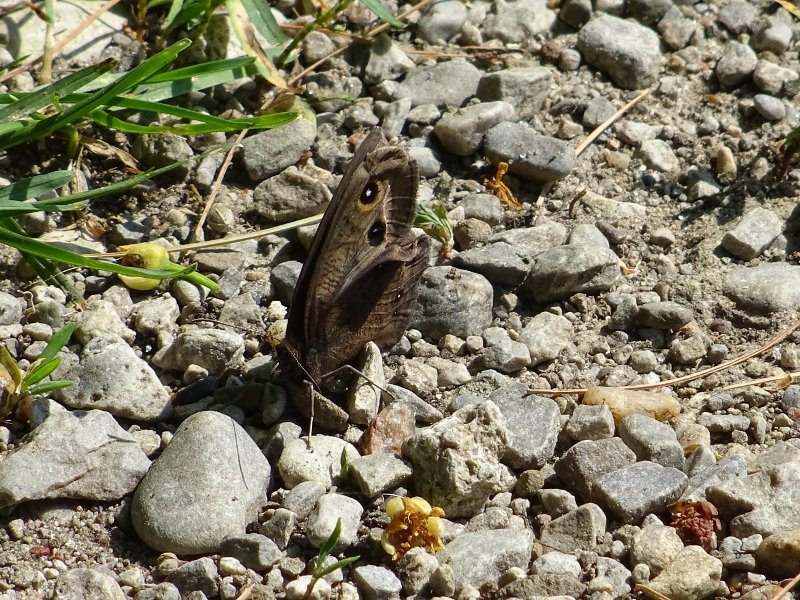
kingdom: Animalia
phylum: Arthropoda
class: Insecta
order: Lepidoptera
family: Nymphalidae
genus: Cercyonis
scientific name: Cercyonis pegala
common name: Common Wood-Nymph
